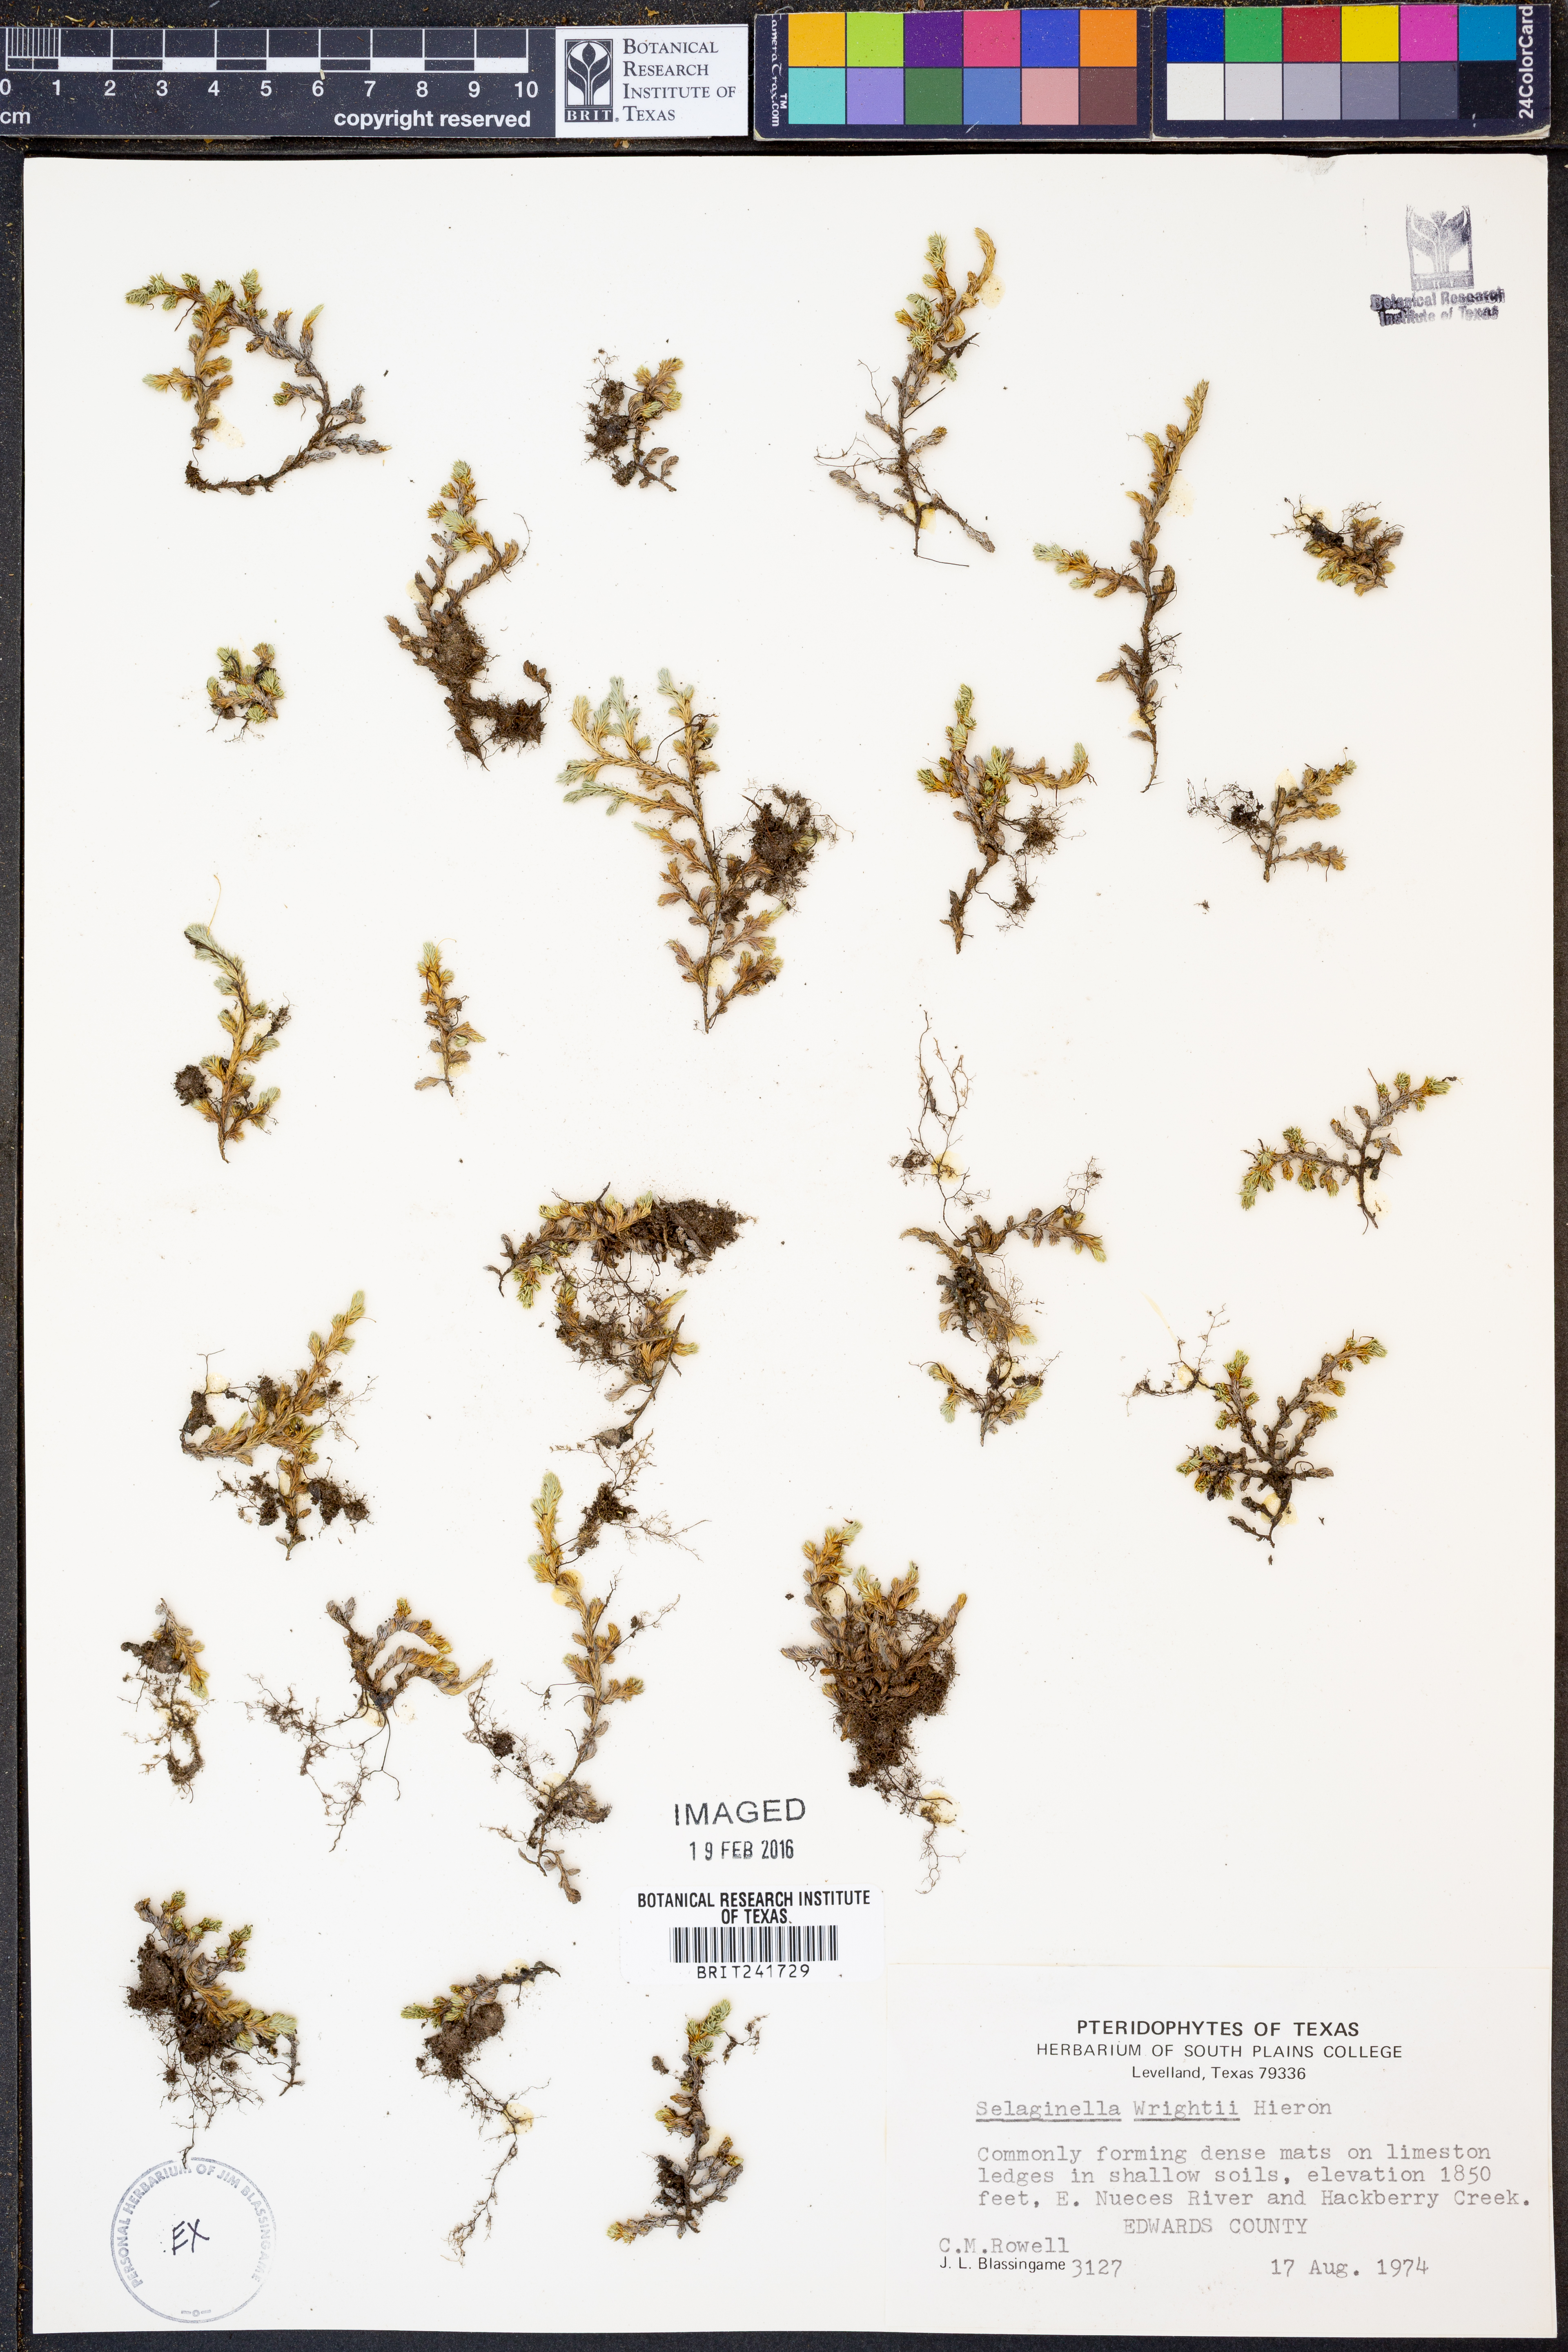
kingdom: Plantae
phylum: Tracheophyta
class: Lycopodiopsida
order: Selaginellales
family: Selaginellaceae
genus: Selaginella
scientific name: Selaginella wrightii
